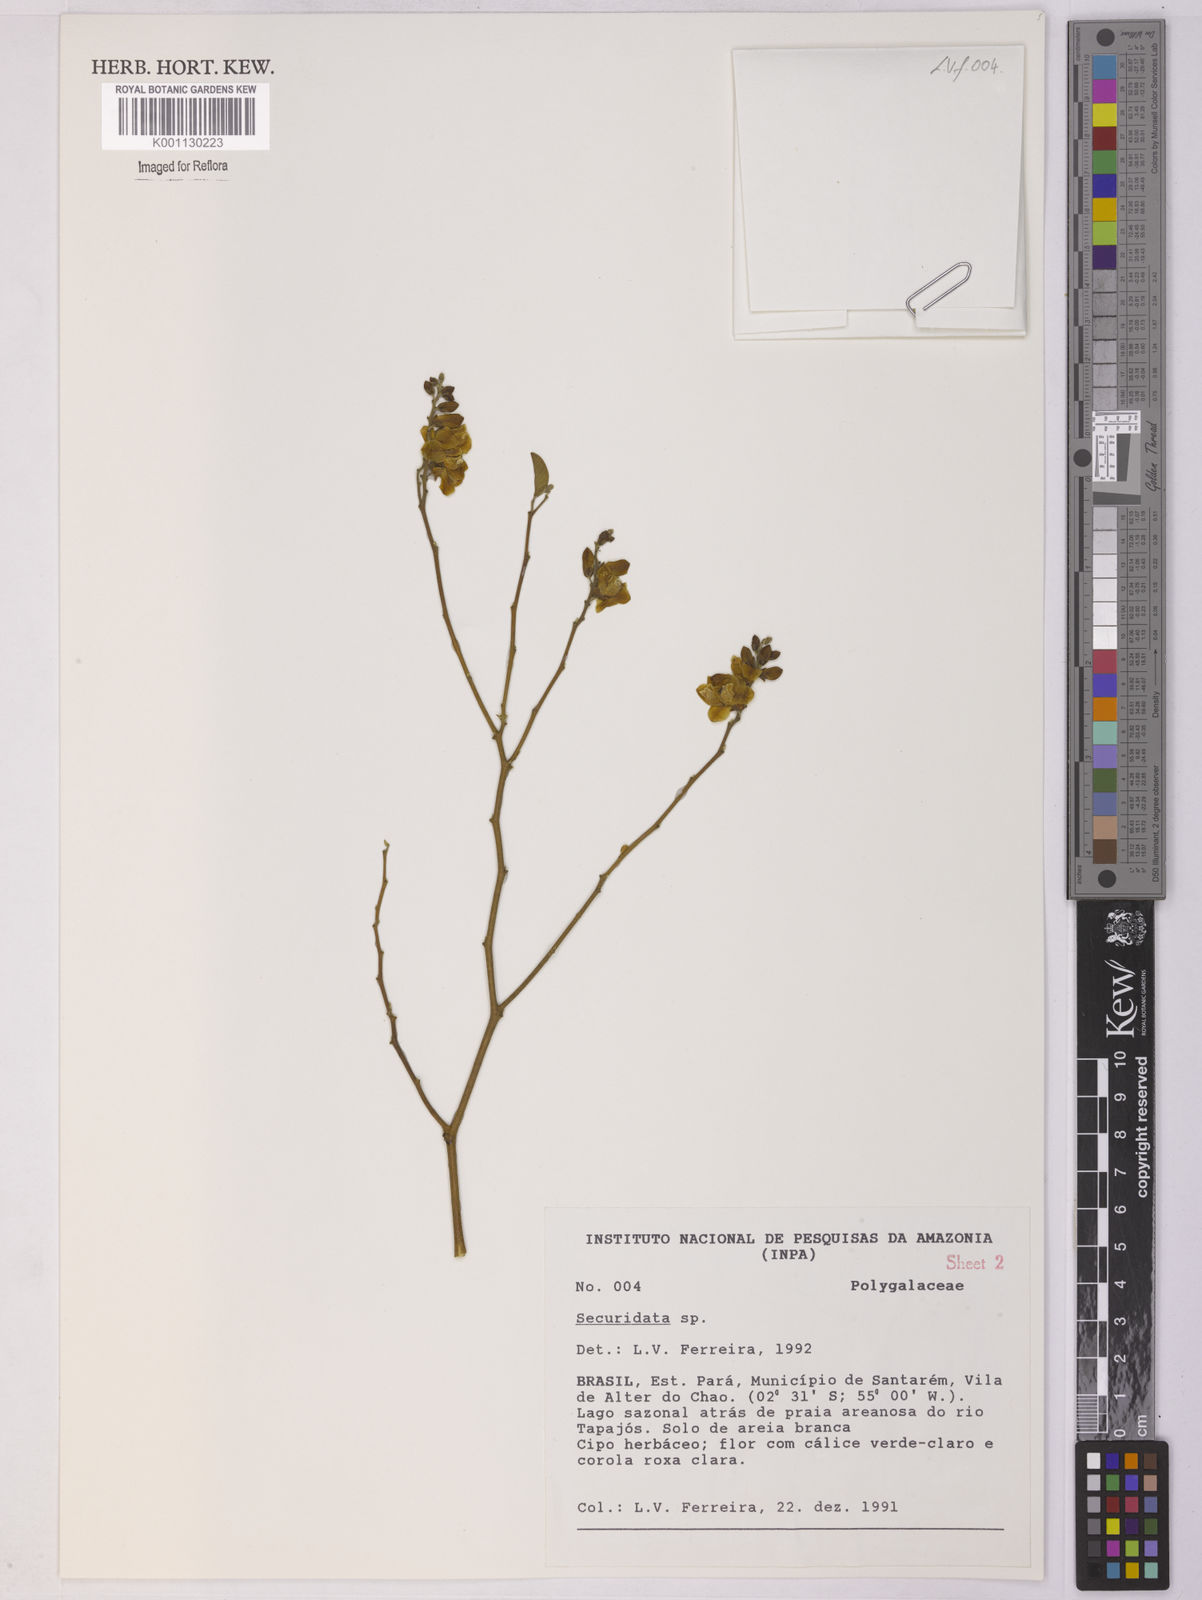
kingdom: Plantae
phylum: Tracheophyta
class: Magnoliopsida
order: Fabales
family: Polygalaceae
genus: Securidaca
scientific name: Securidaca
